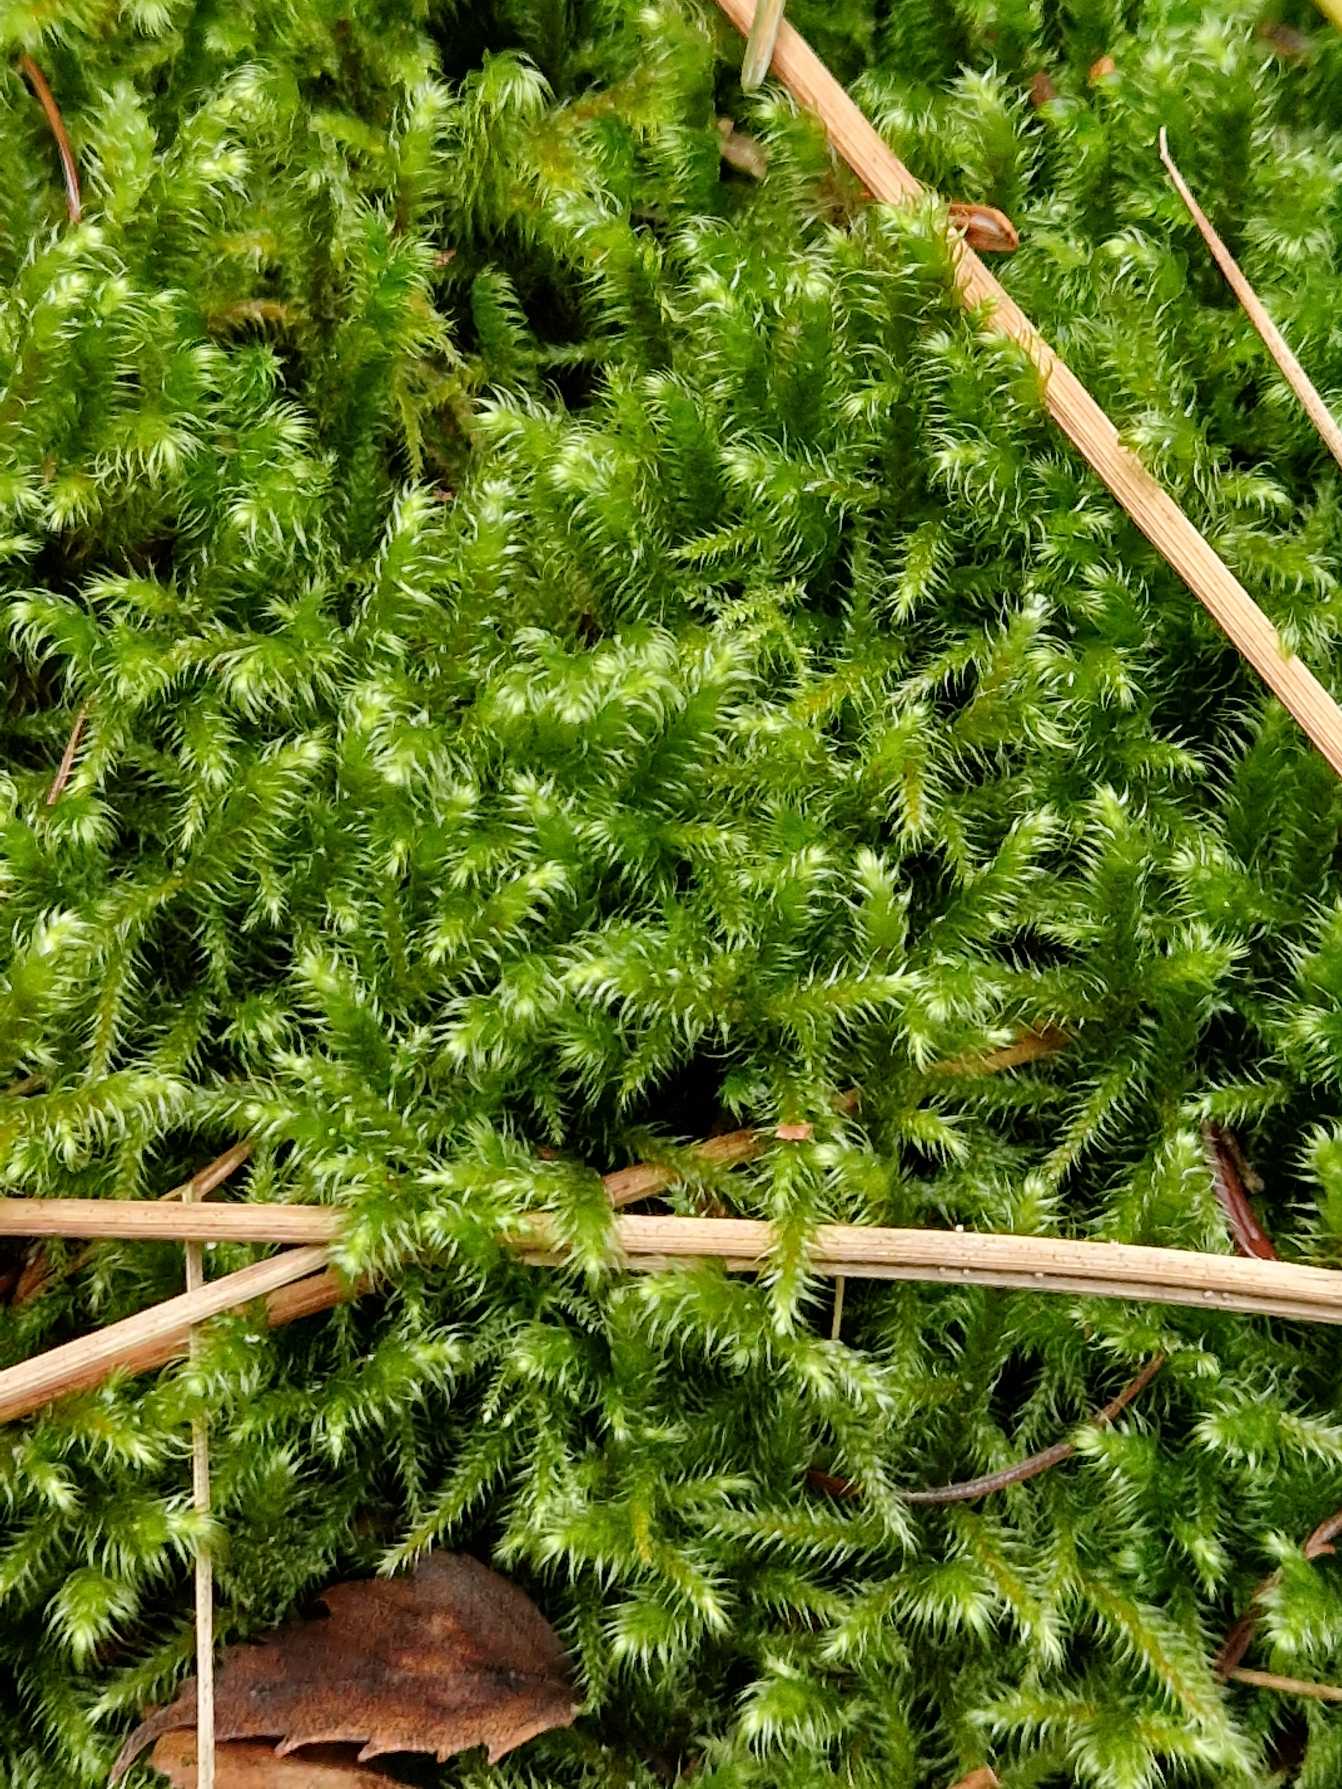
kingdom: Plantae
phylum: Bryophyta
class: Bryopsida
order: Hypnales
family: Hylocomiaceae
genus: Rhytidiadelphus
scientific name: Rhytidiadelphus loreus
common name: Ulvefod-kransemos
